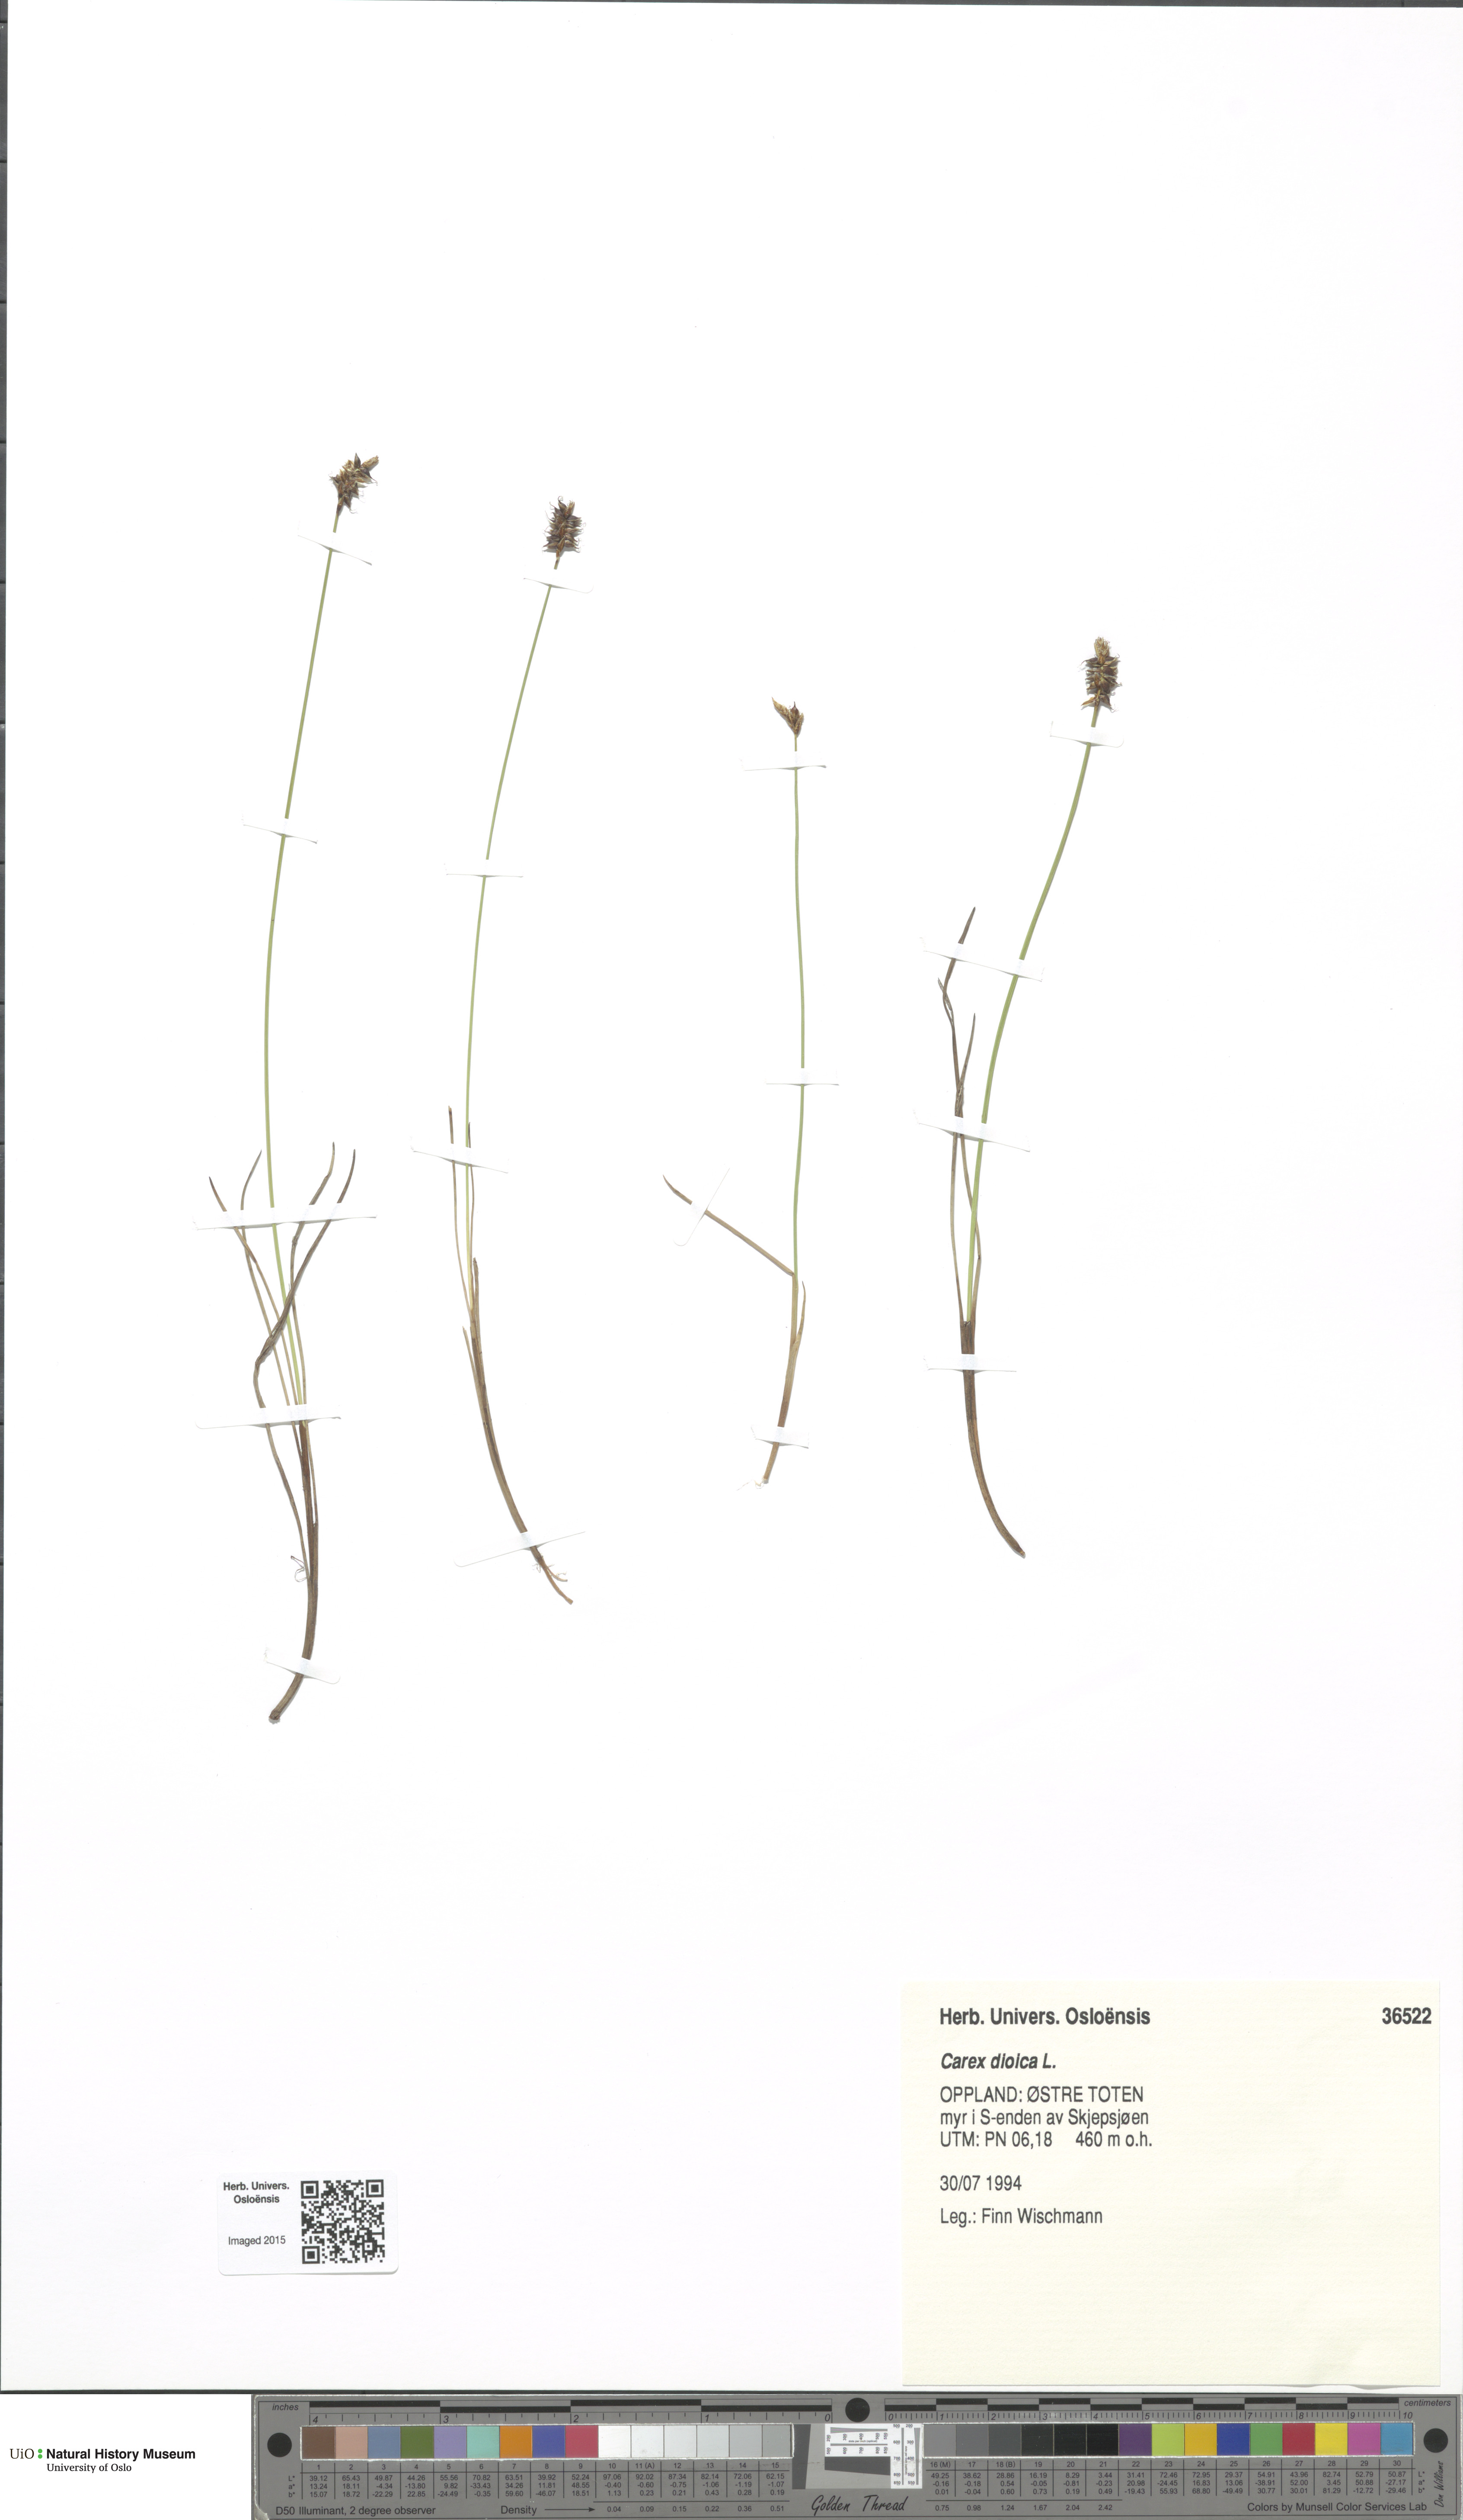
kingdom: Plantae
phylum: Tracheophyta
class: Liliopsida
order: Poales
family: Cyperaceae
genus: Carex
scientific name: Carex dioica
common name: Dioecious sedge
